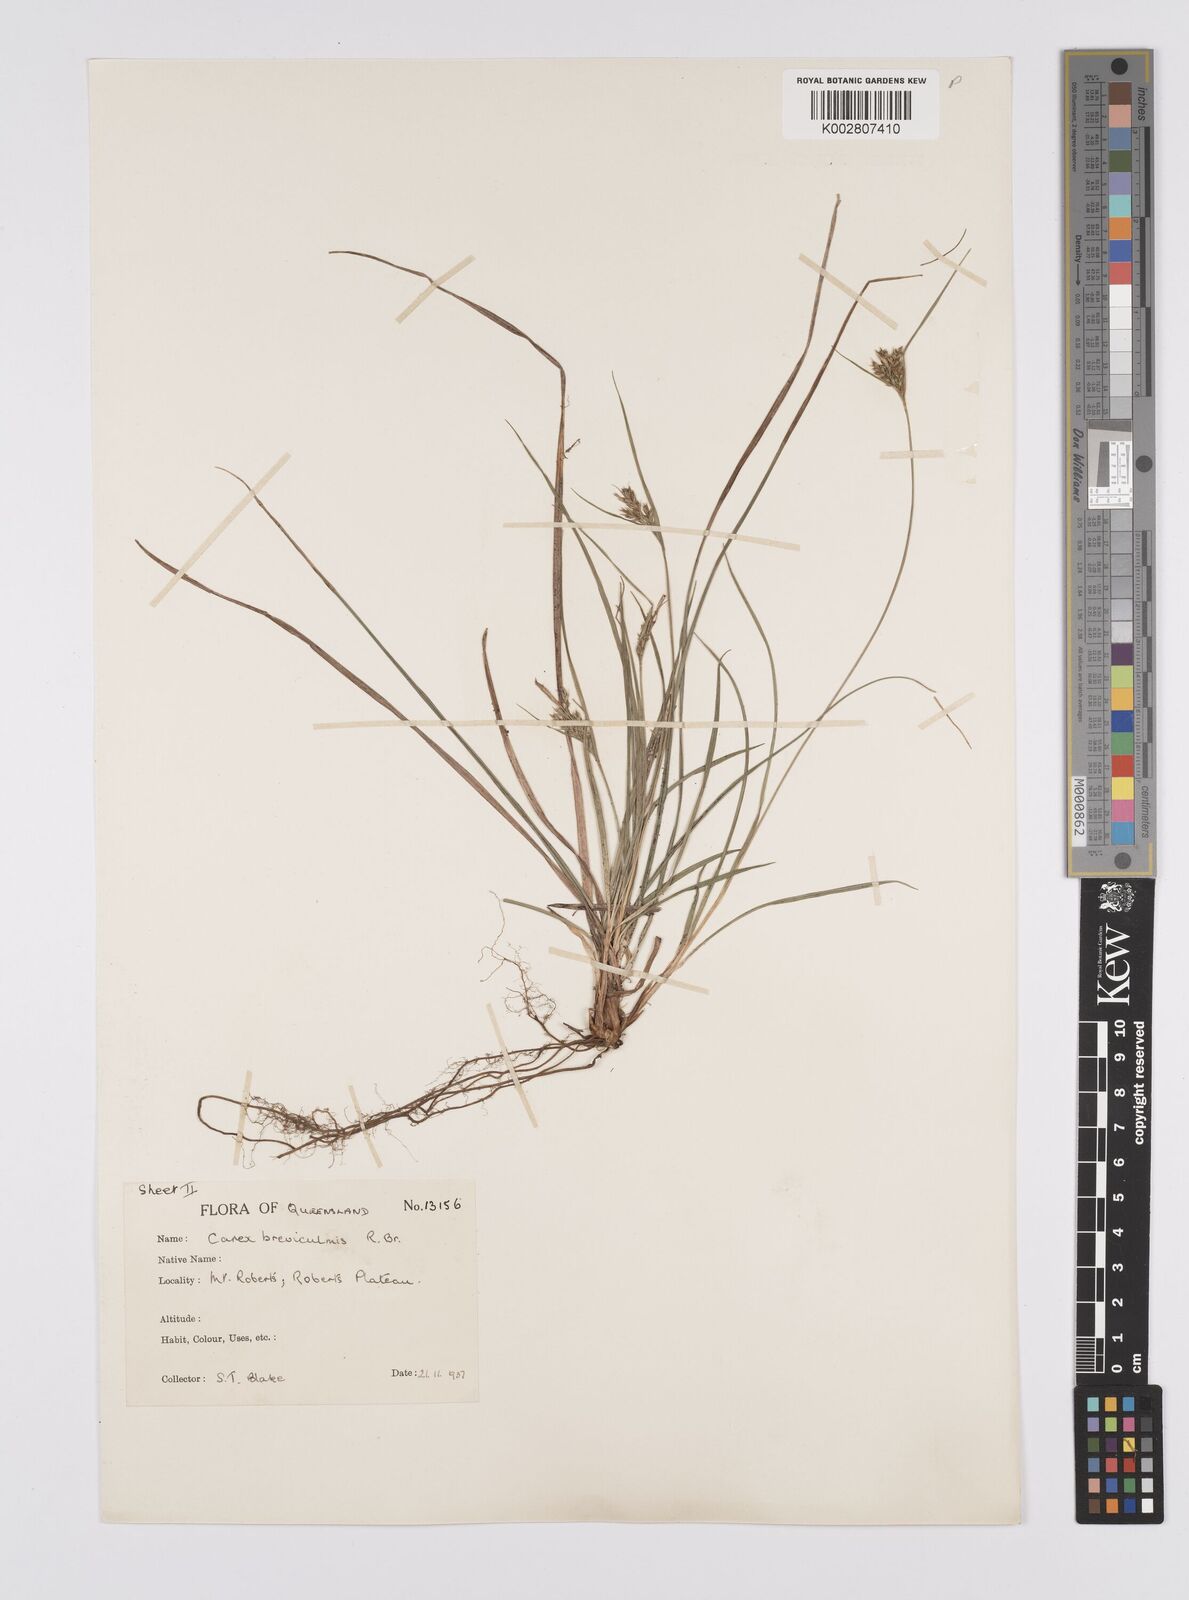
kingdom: Plantae
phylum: Tracheophyta
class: Liliopsida
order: Poales
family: Cyperaceae
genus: Carex
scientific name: Carex breviculmis
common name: Asian shortstem sedge
